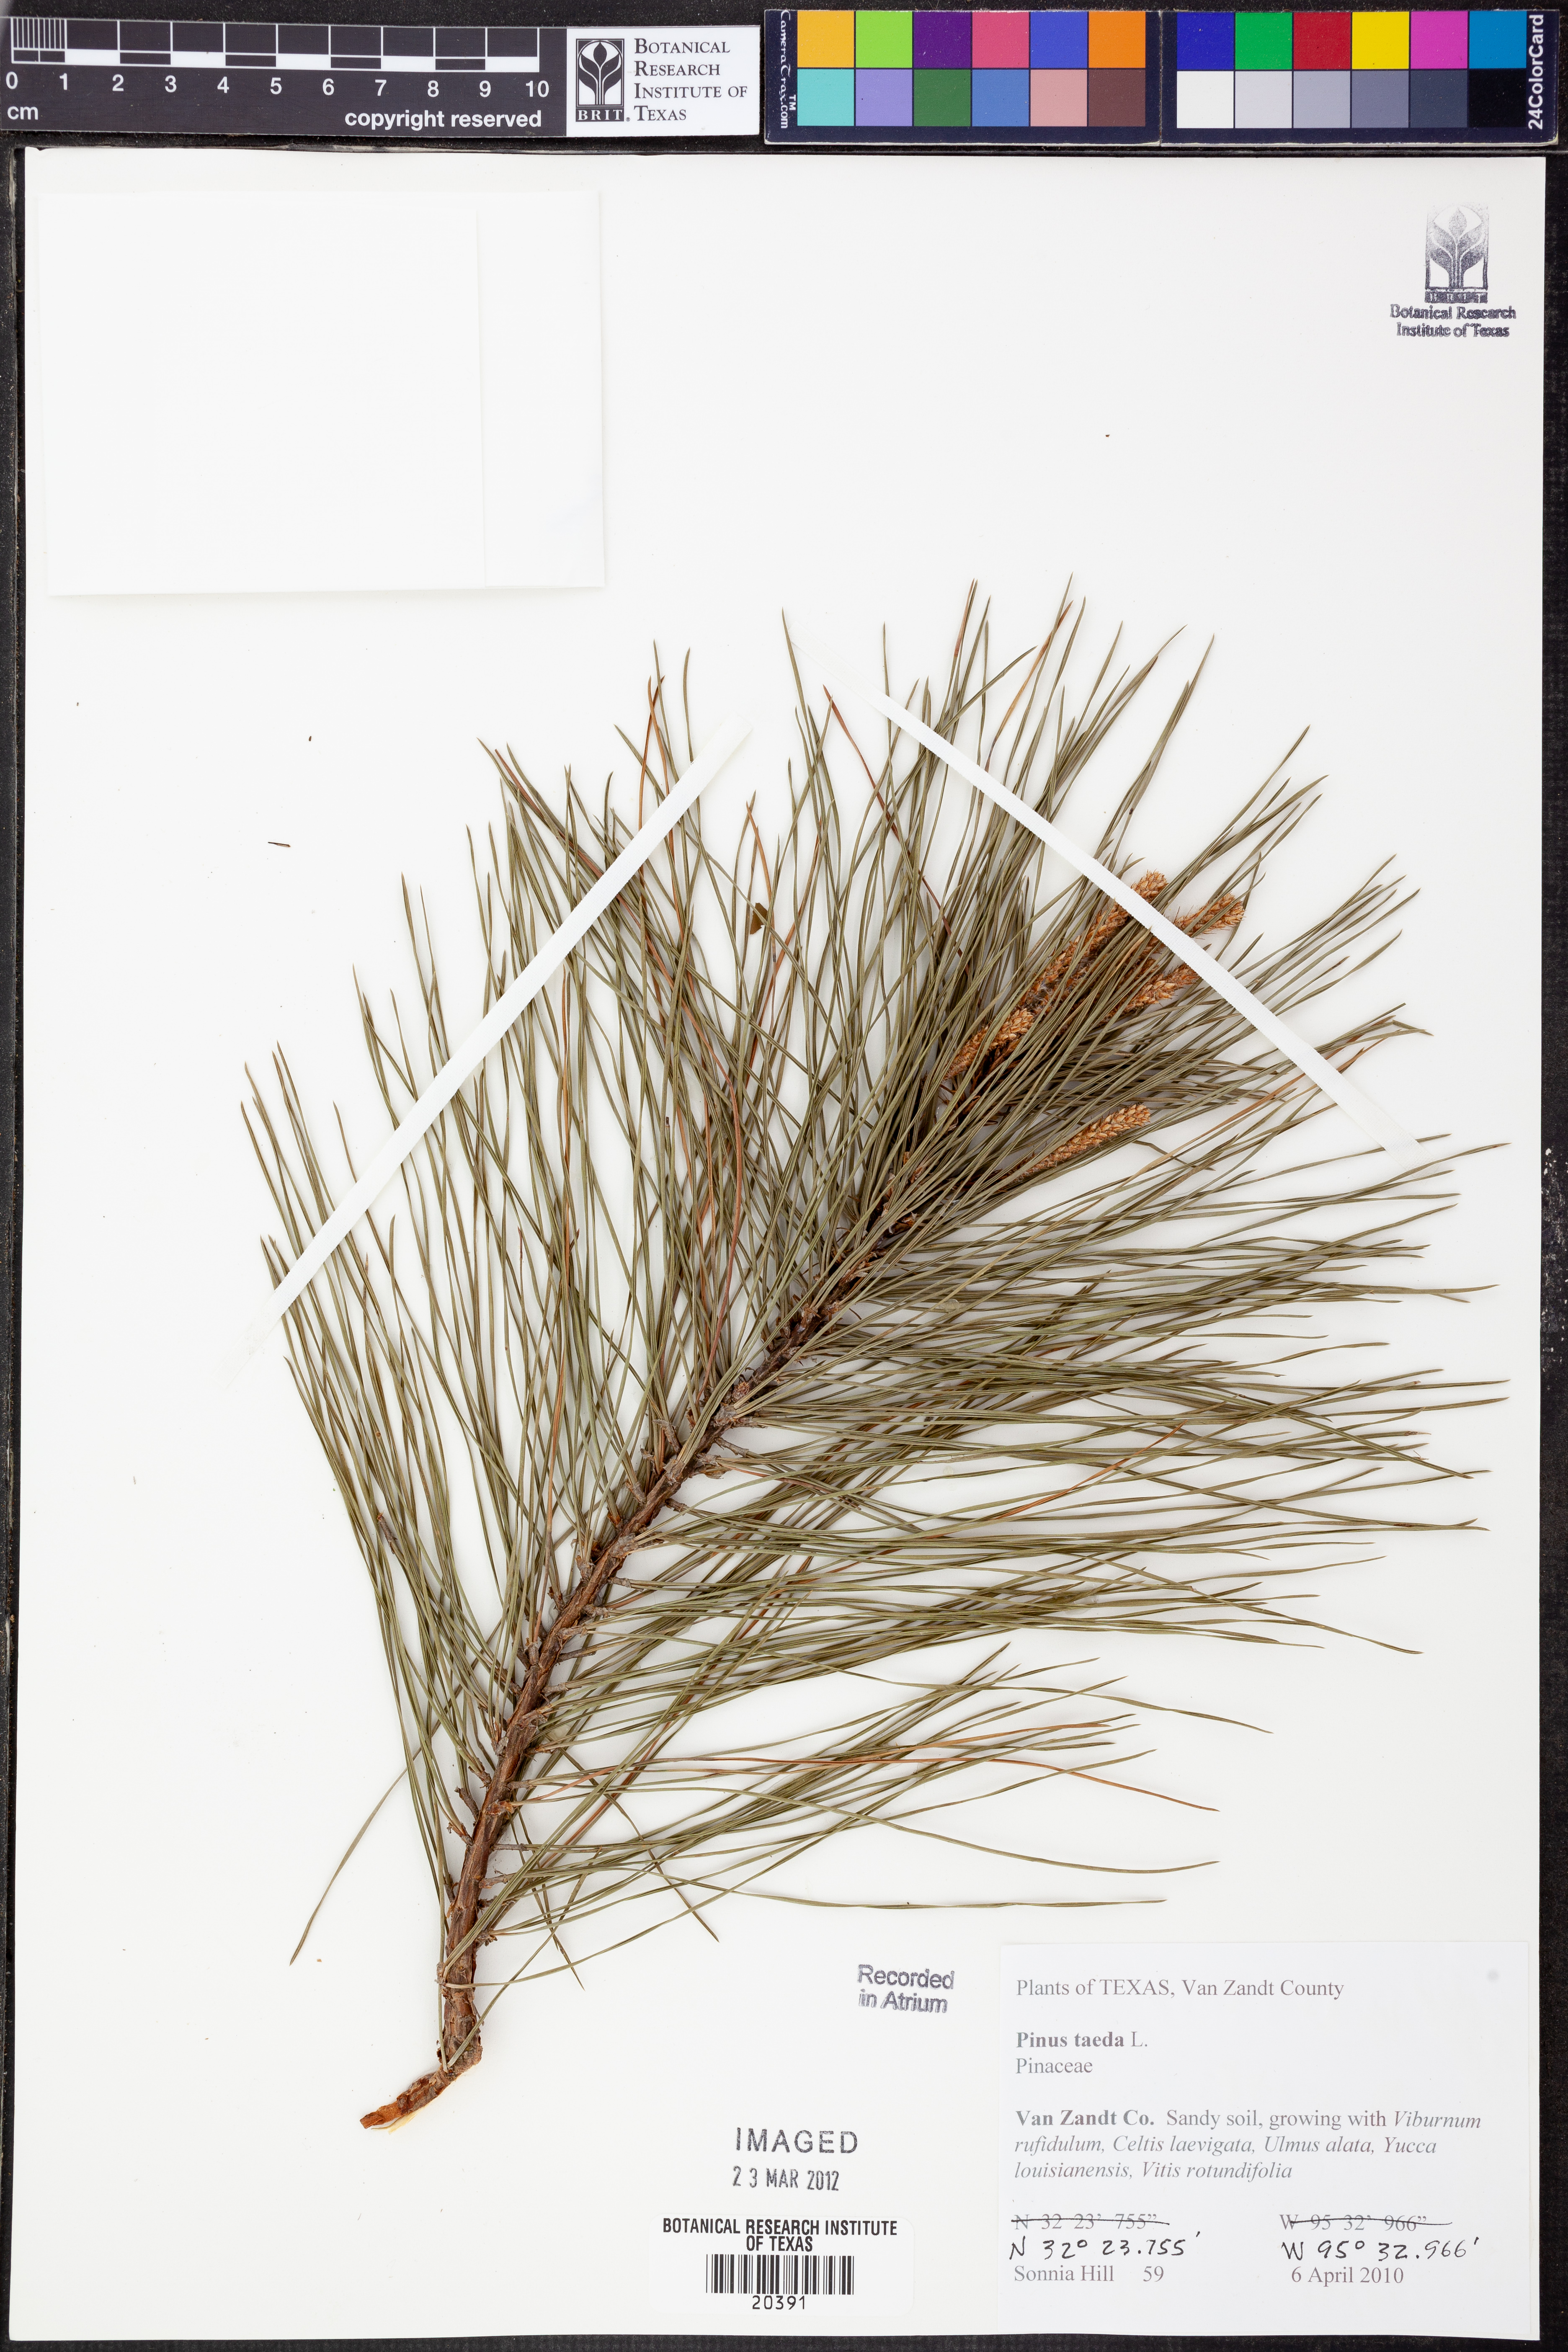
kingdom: Plantae
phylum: Tracheophyta
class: Pinopsida
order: Pinales
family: Pinaceae
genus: Pinus
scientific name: Pinus taeda
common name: Loblolly pine
